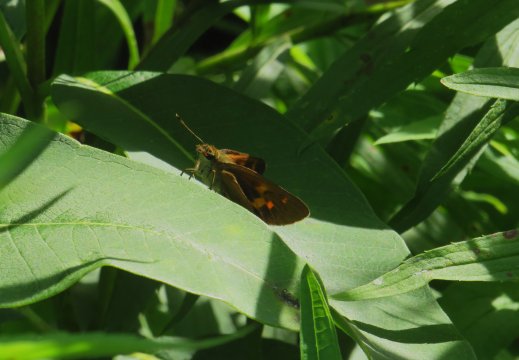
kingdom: Animalia
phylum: Arthropoda
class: Insecta
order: Lepidoptera
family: Hesperiidae
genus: Poanes
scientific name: Poanes viator
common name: Broad-winged Skipper
